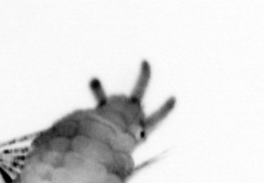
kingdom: Animalia
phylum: Annelida
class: Polychaeta
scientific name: Polychaeta
